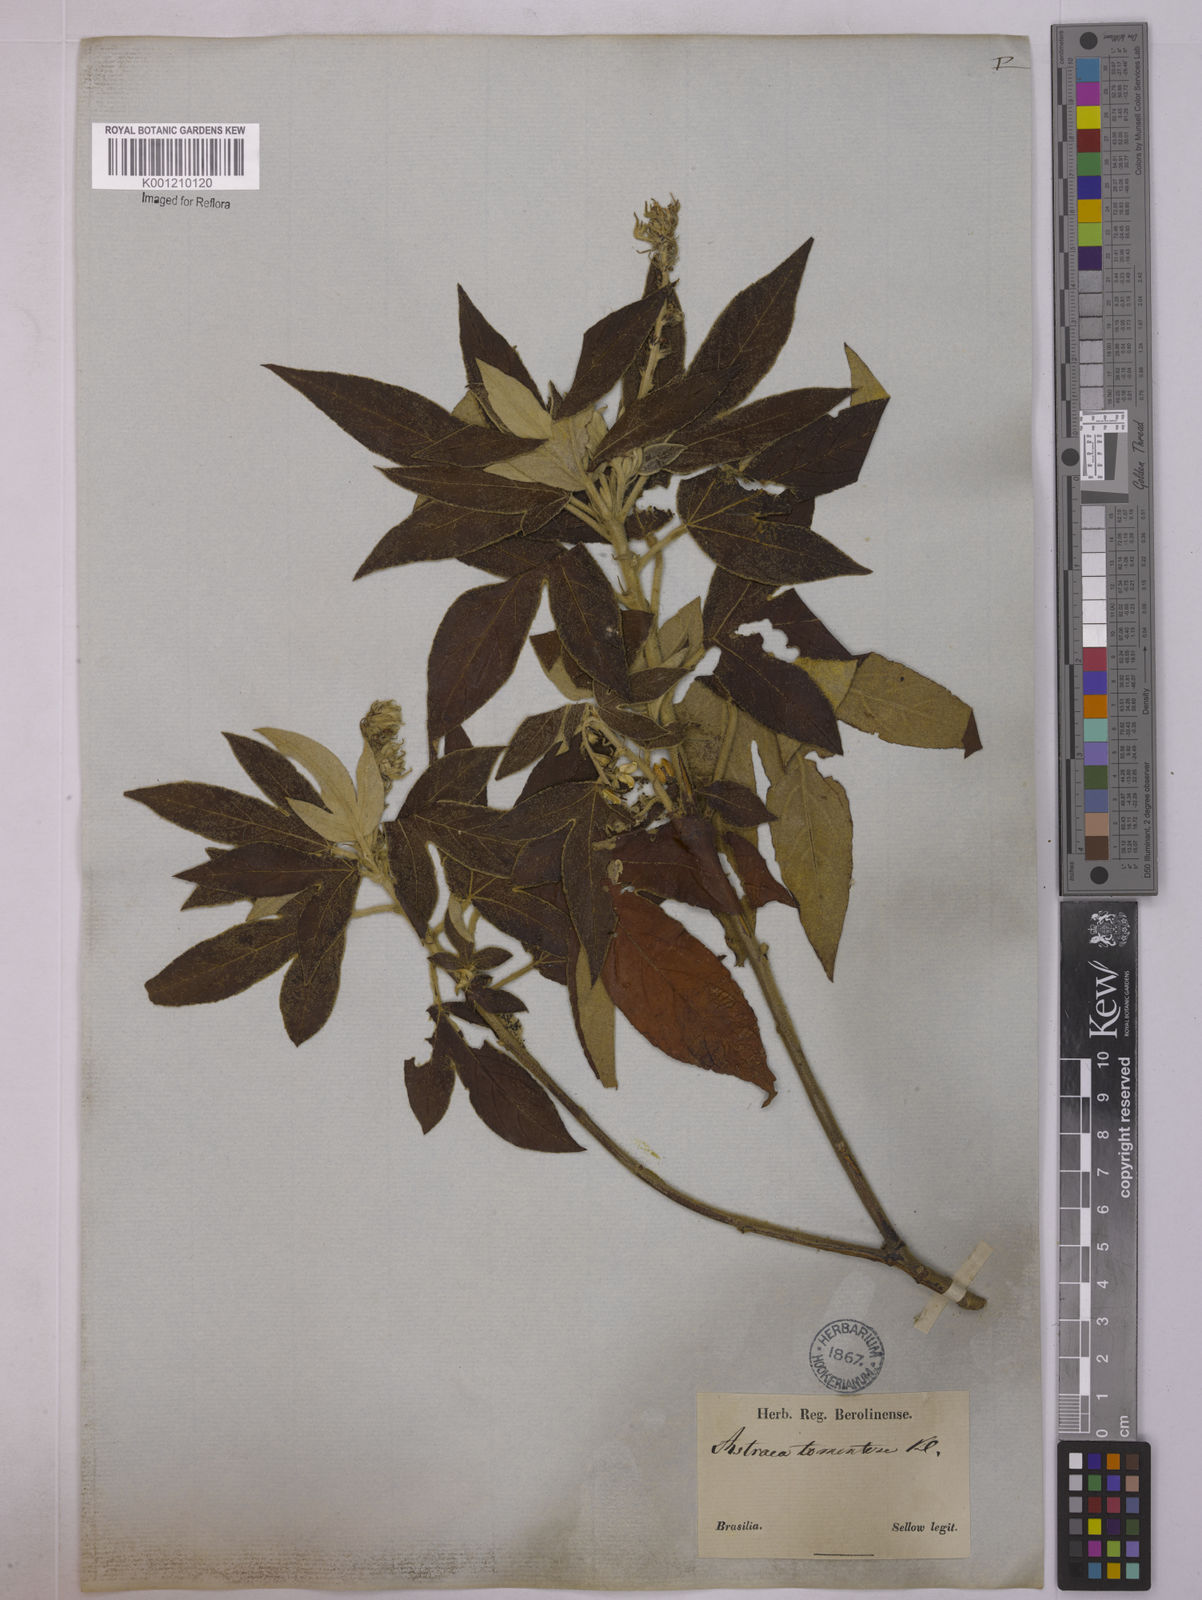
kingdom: Plantae
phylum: Tracheophyta
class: Magnoliopsida
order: Malpighiales
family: Euphorbiaceae
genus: Astraea
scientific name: Astraea
